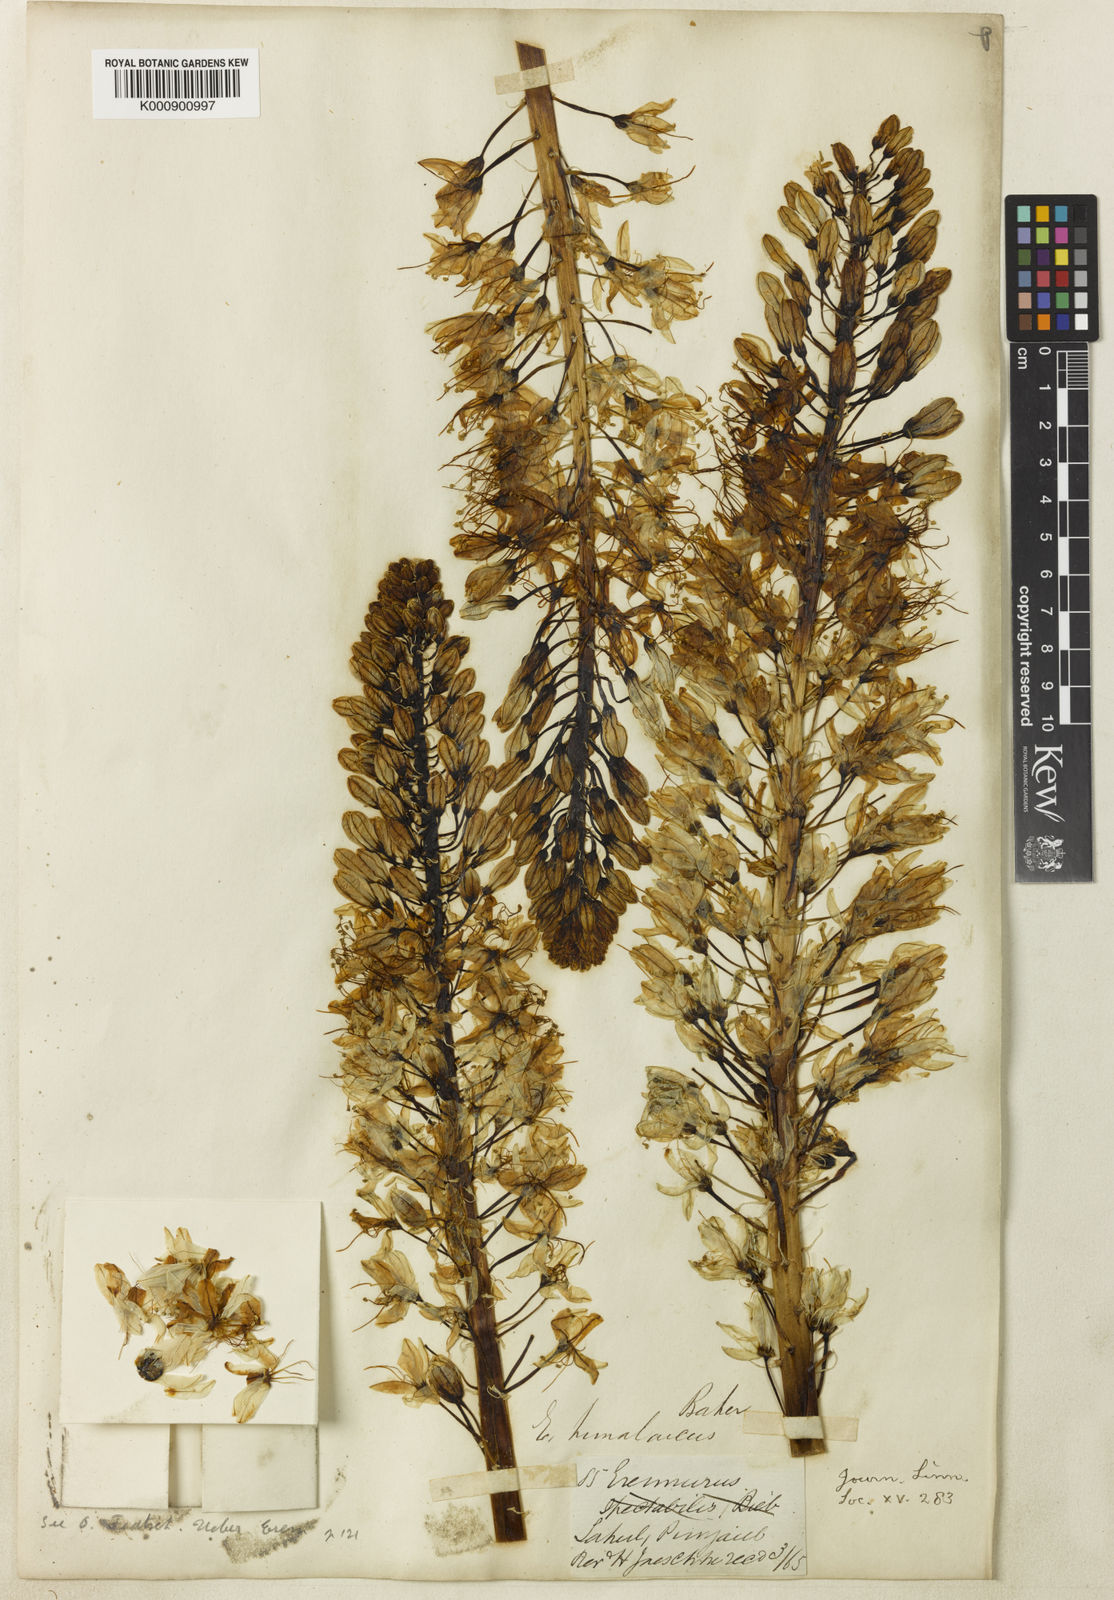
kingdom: Plantae
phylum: Tracheophyta
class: Liliopsida
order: Asparagales
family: Asphodelaceae
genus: Eremurus
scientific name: Eremurus himalaicus
